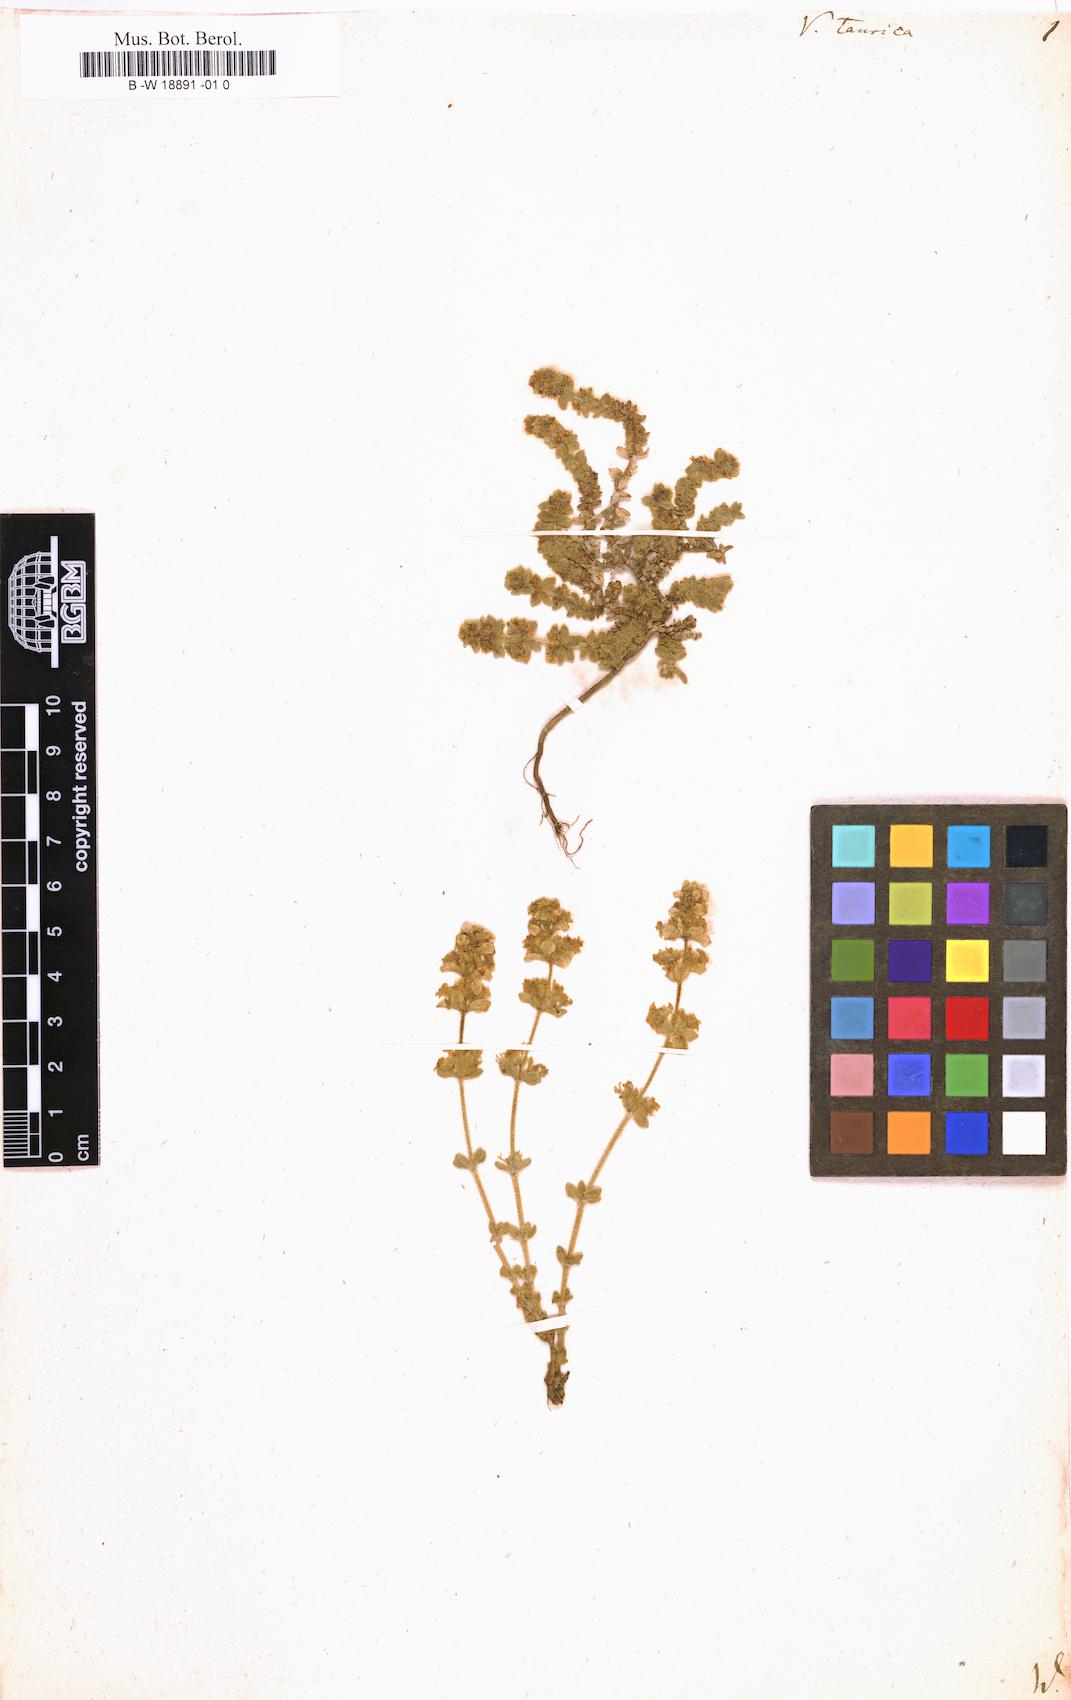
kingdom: Plantae
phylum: Tracheophyta
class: Magnoliopsida
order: Gentianales
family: Rubiaceae
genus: Cruciata
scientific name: Cruciata taurica
